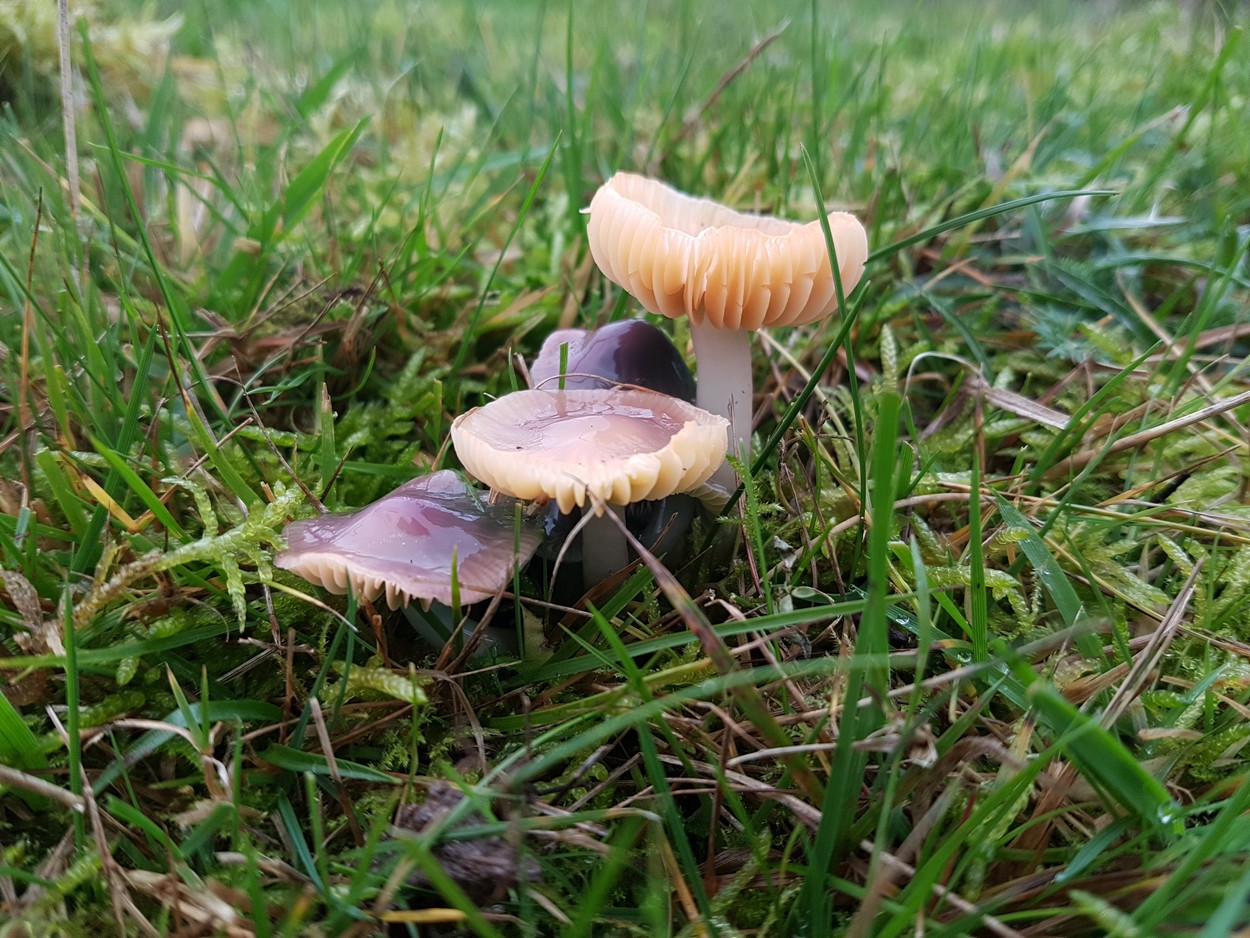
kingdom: Fungi
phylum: Basidiomycota
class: Agaricomycetes
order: Agaricales
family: Hygrophoraceae
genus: Gliophorus
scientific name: Gliophorus psittacinus
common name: papegøje-vokshat
